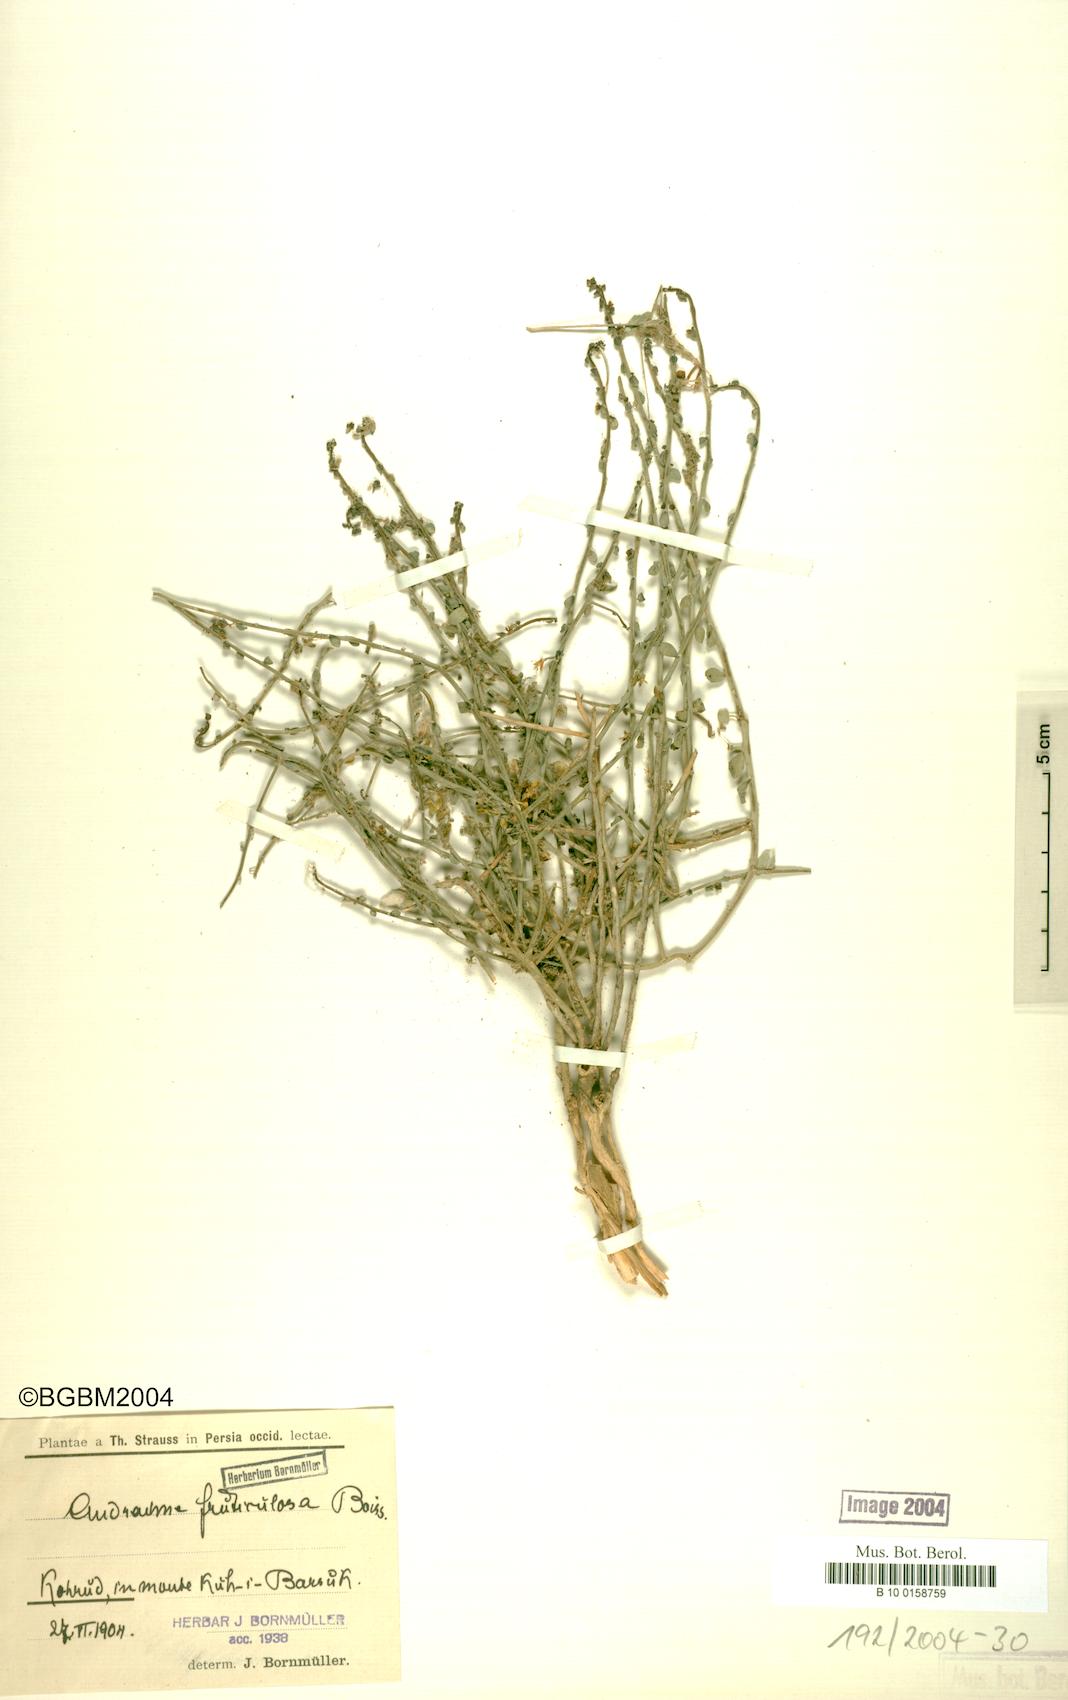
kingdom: Plantae
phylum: Tracheophyta
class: Magnoliopsida
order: Malpighiales
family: Phyllanthaceae
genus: Andrachne
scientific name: Andrachne fruticulosa
